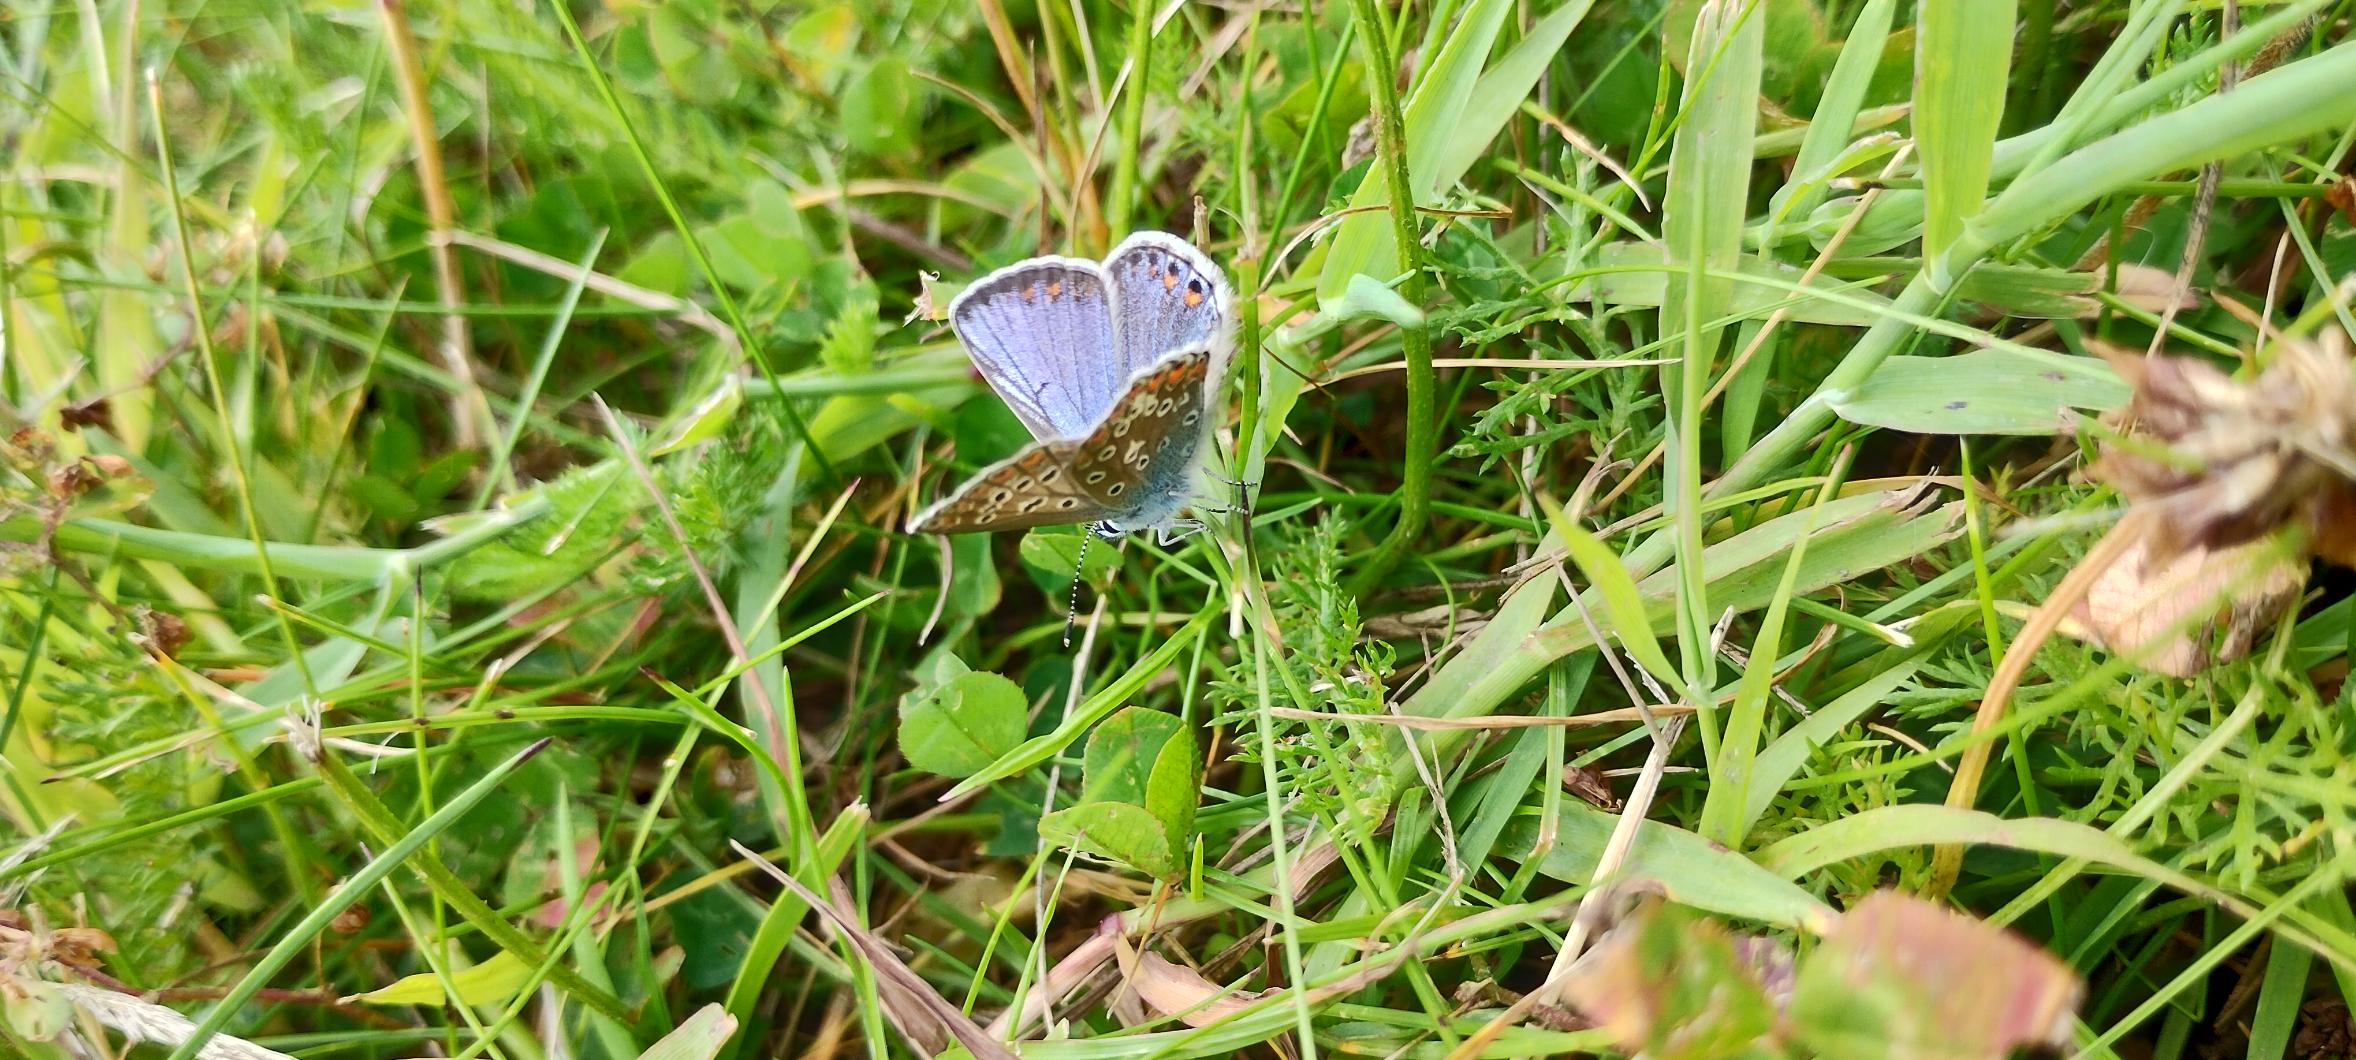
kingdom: Animalia
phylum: Arthropoda
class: Insecta
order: Lepidoptera
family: Lycaenidae
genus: Polyommatus
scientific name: Polyommatus icarus
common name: Almindelig blåfugl
